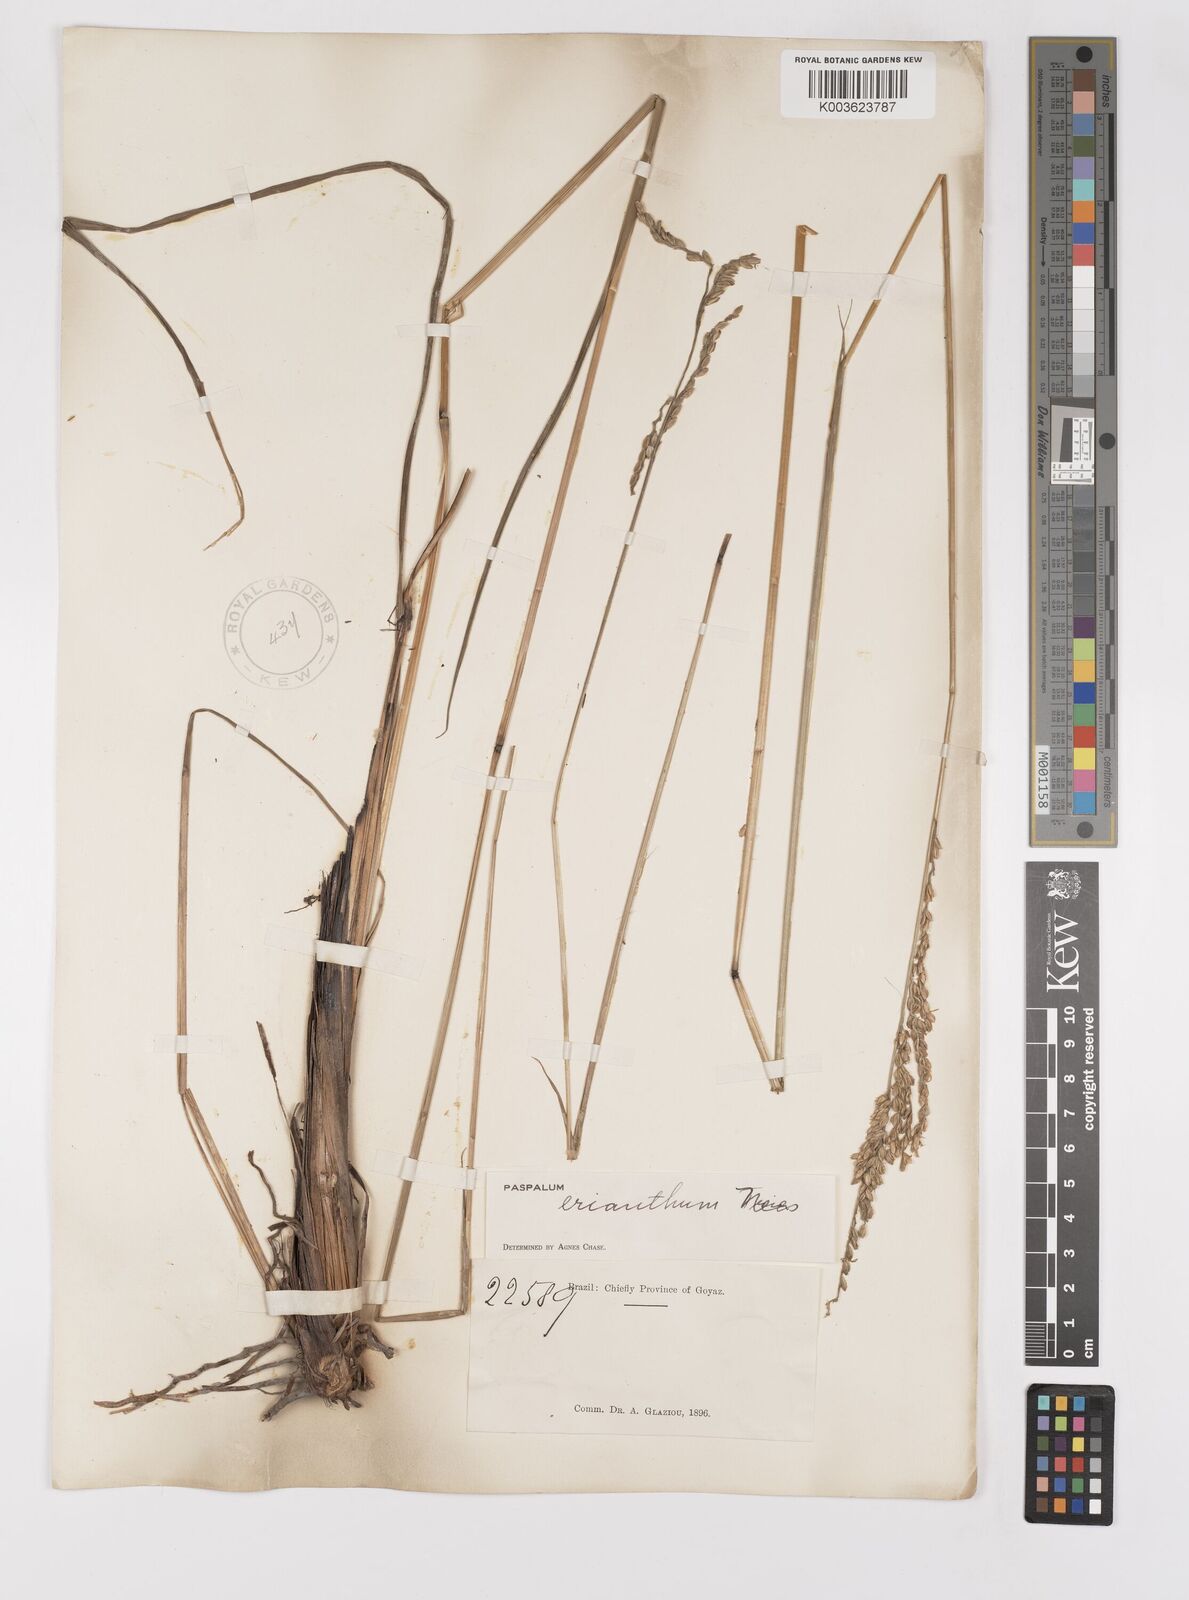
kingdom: Plantae
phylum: Tracheophyta
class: Liliopsida
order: Poales
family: Poaceae
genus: Paspalum
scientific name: Paspalum erianthum
